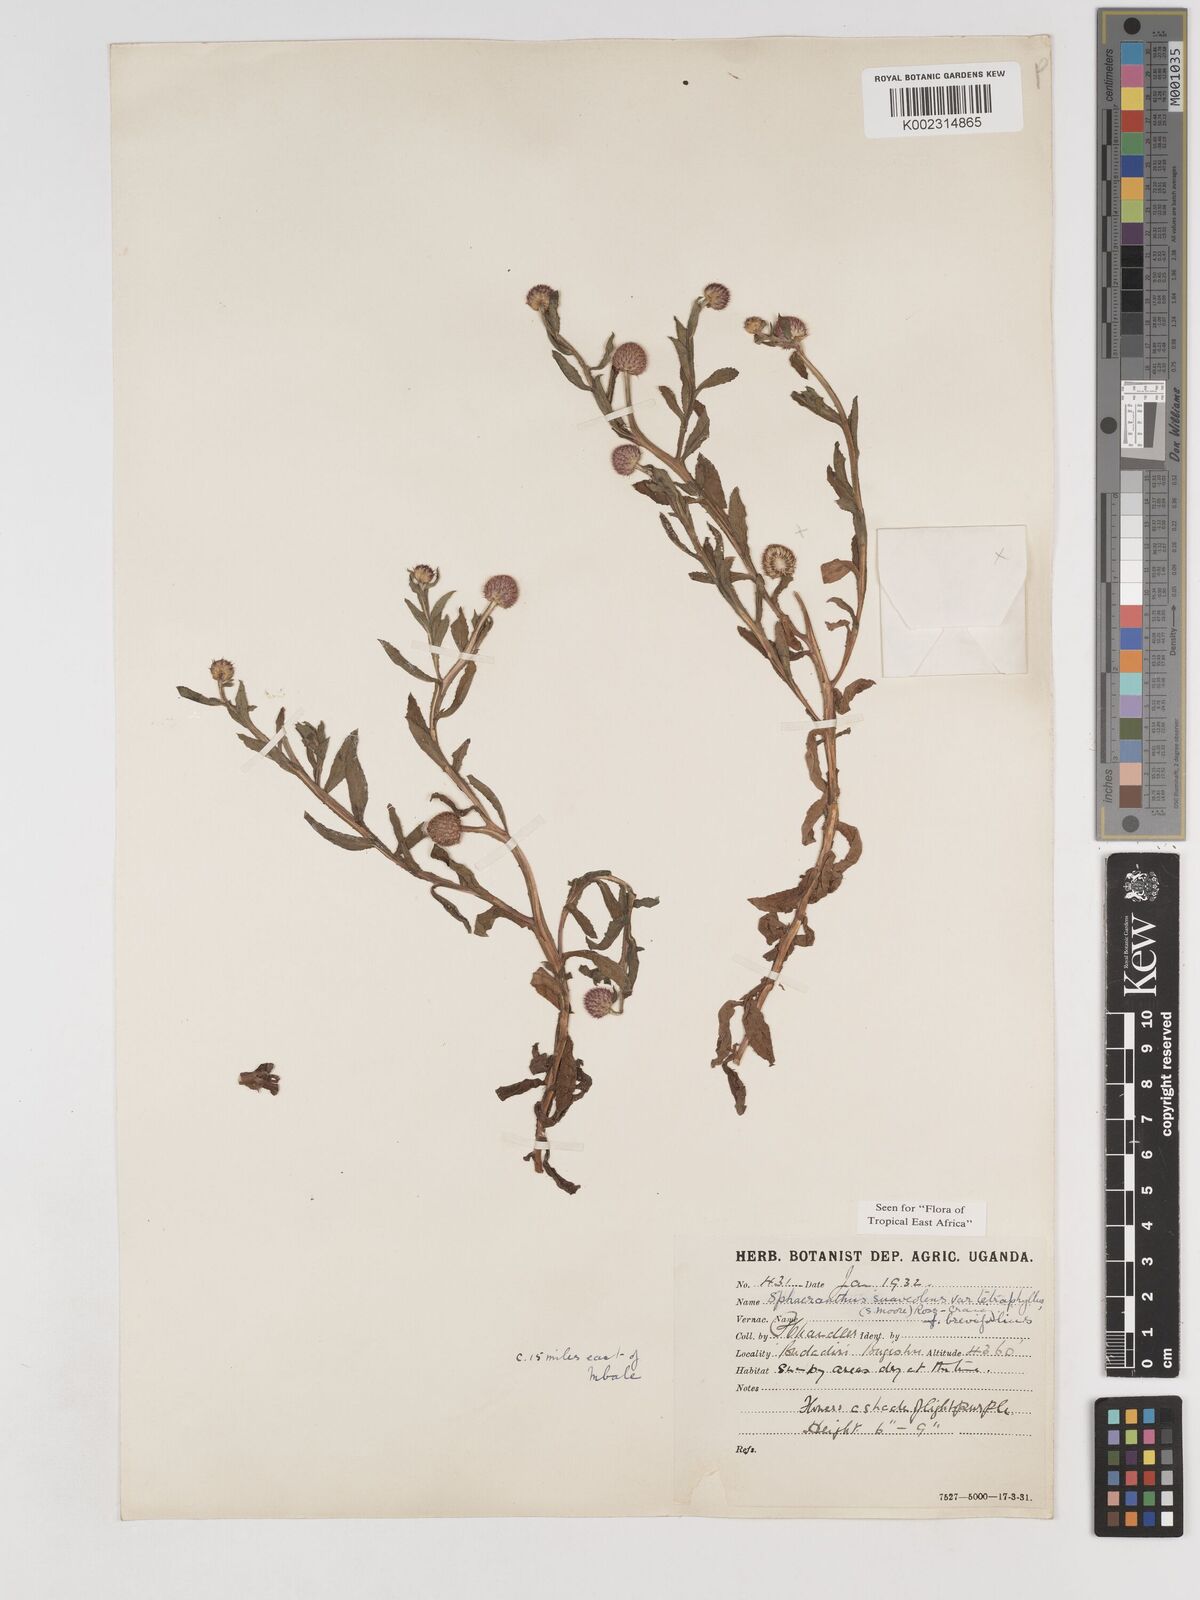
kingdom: Plantae
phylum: Tracheophyta
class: Magnoliopsida
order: Asterales
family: Asteraceae
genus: Sphaeranthus
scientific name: Sphaeranthus suaveolens
